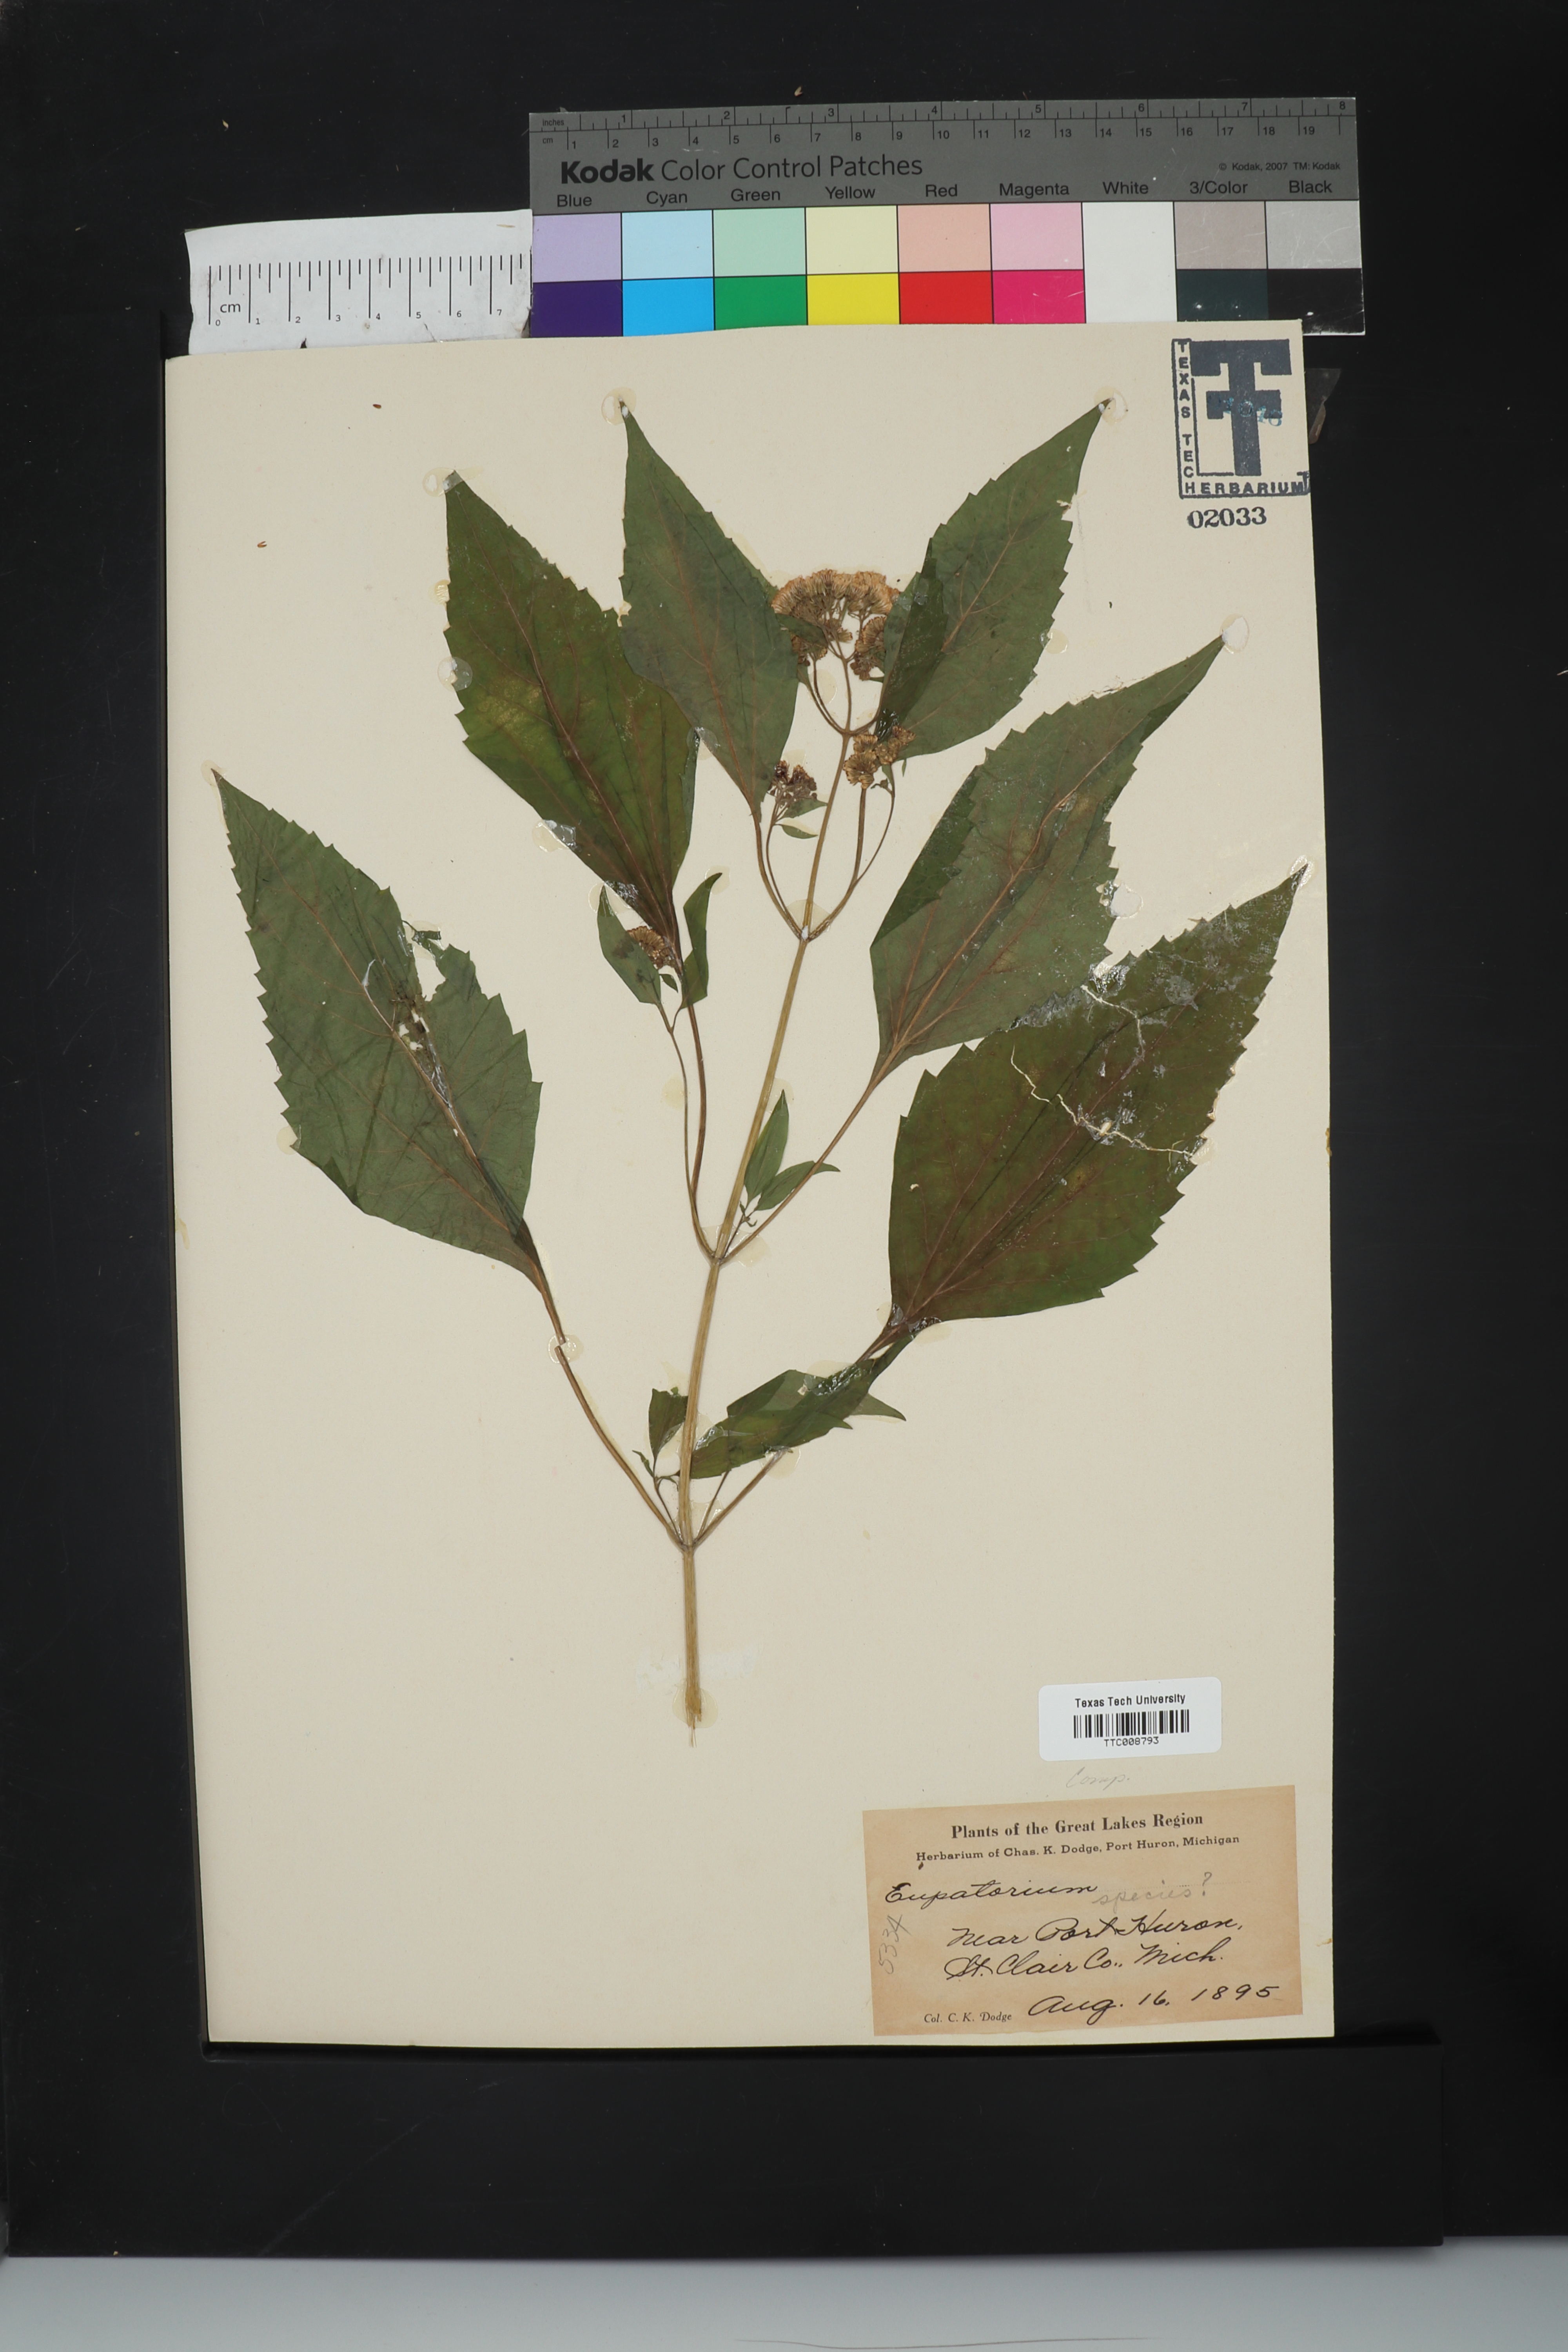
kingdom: Plantae
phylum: Tracheophyta
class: Magnoliopsida
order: Asterales
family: Asteraceae
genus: Eupatorium
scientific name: Eupatorium
